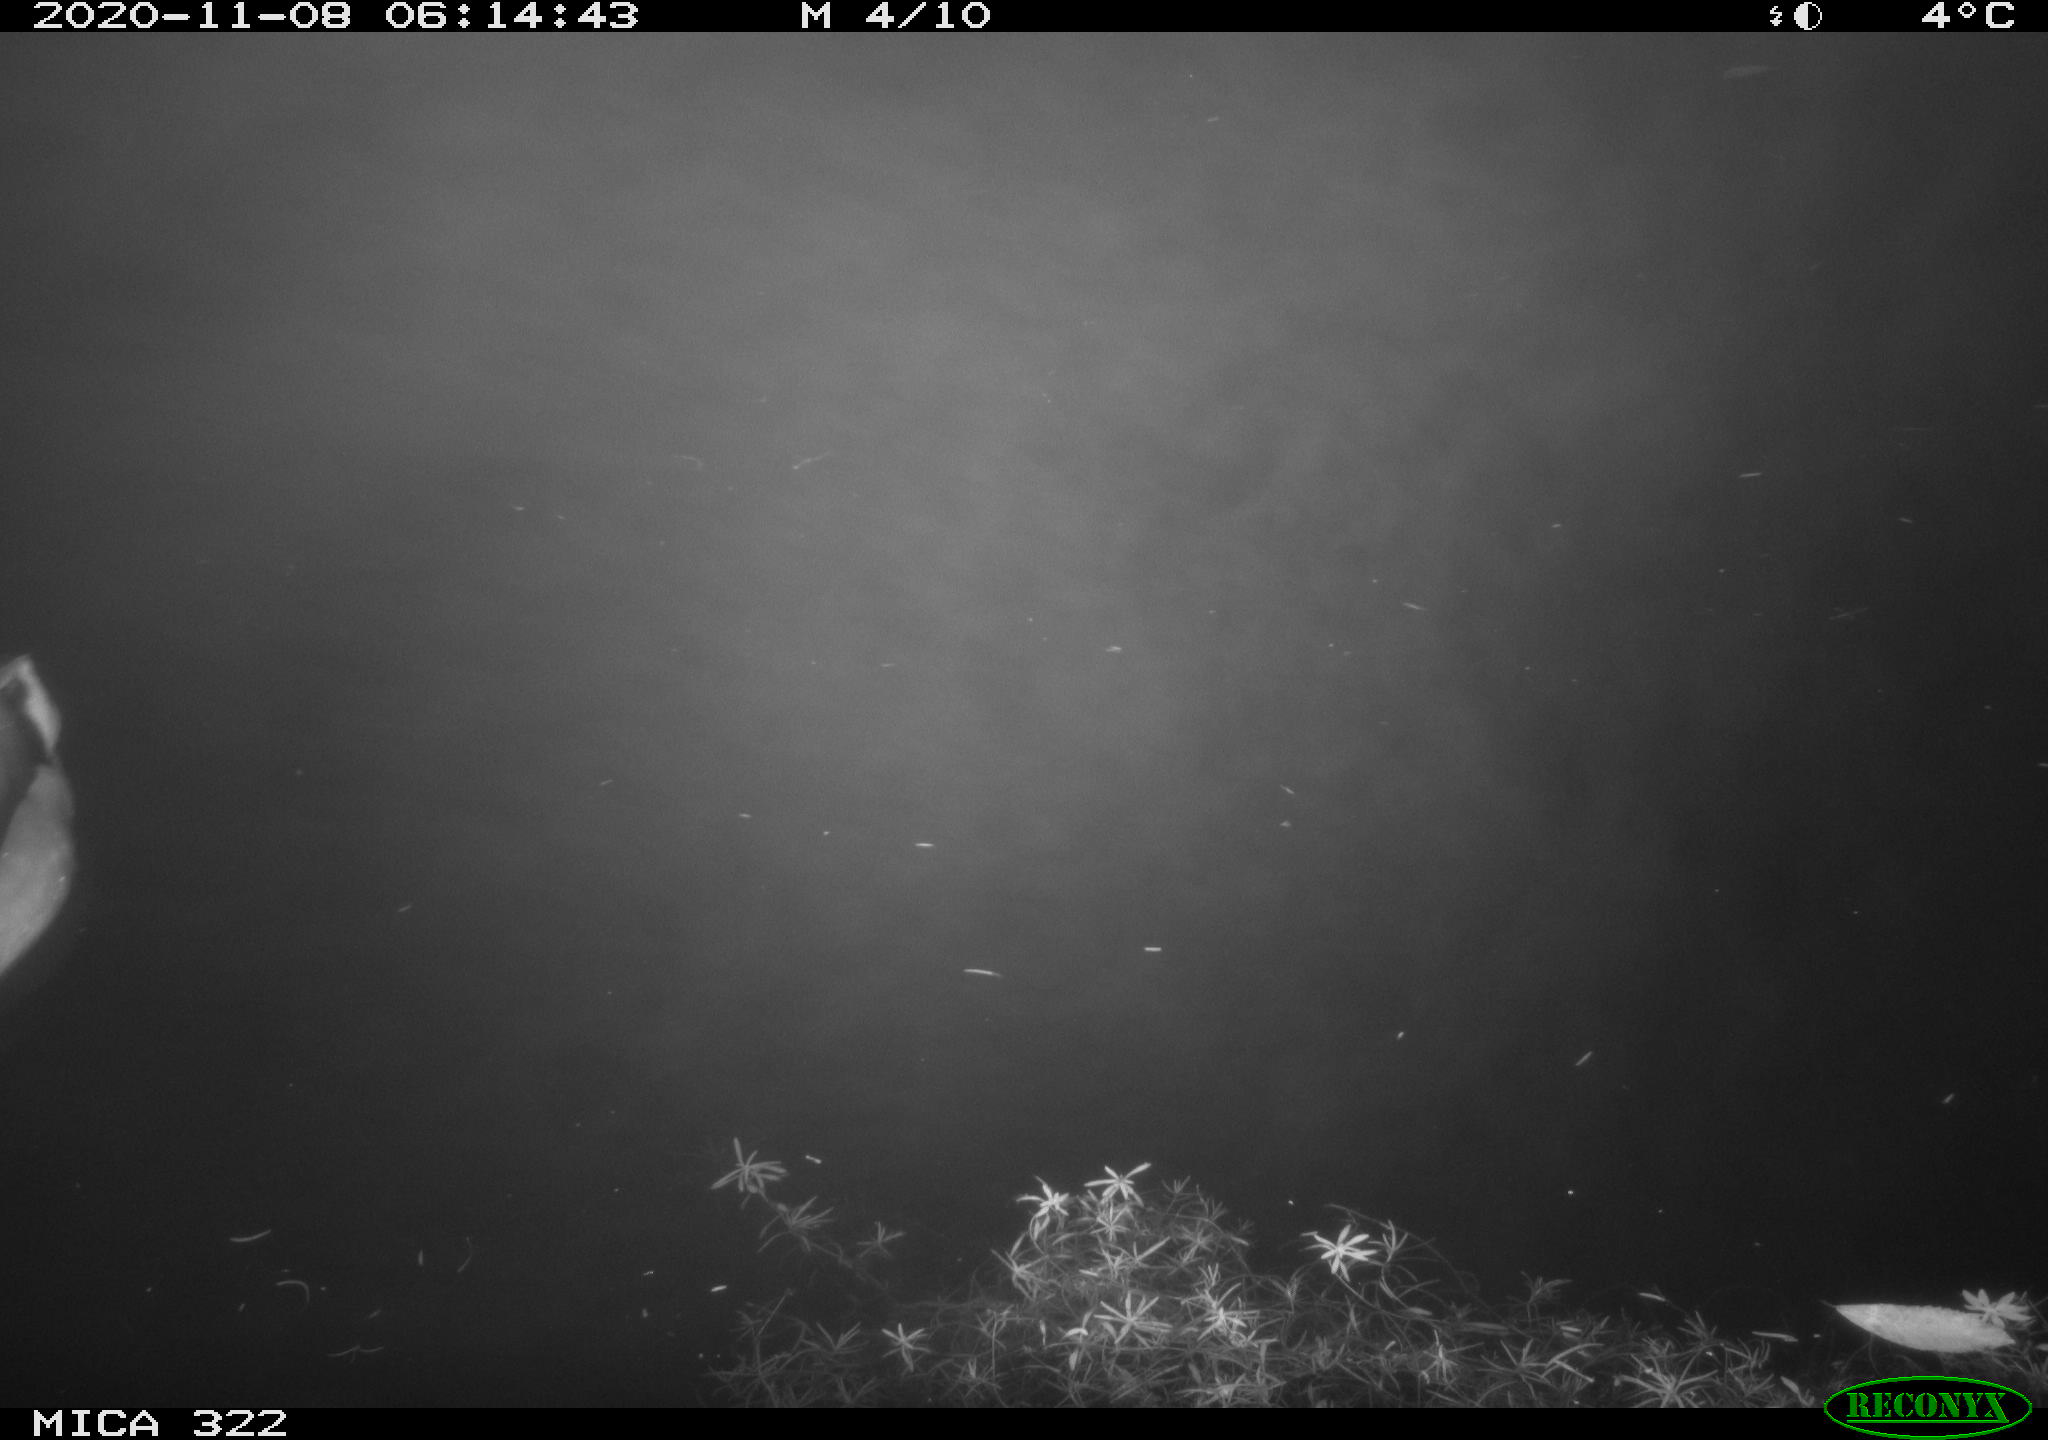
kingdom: Animalia
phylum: Chordata
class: Aves
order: Anseriformes
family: Anatidae
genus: Anas
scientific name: Anas platyrhynchos
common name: Mallard
